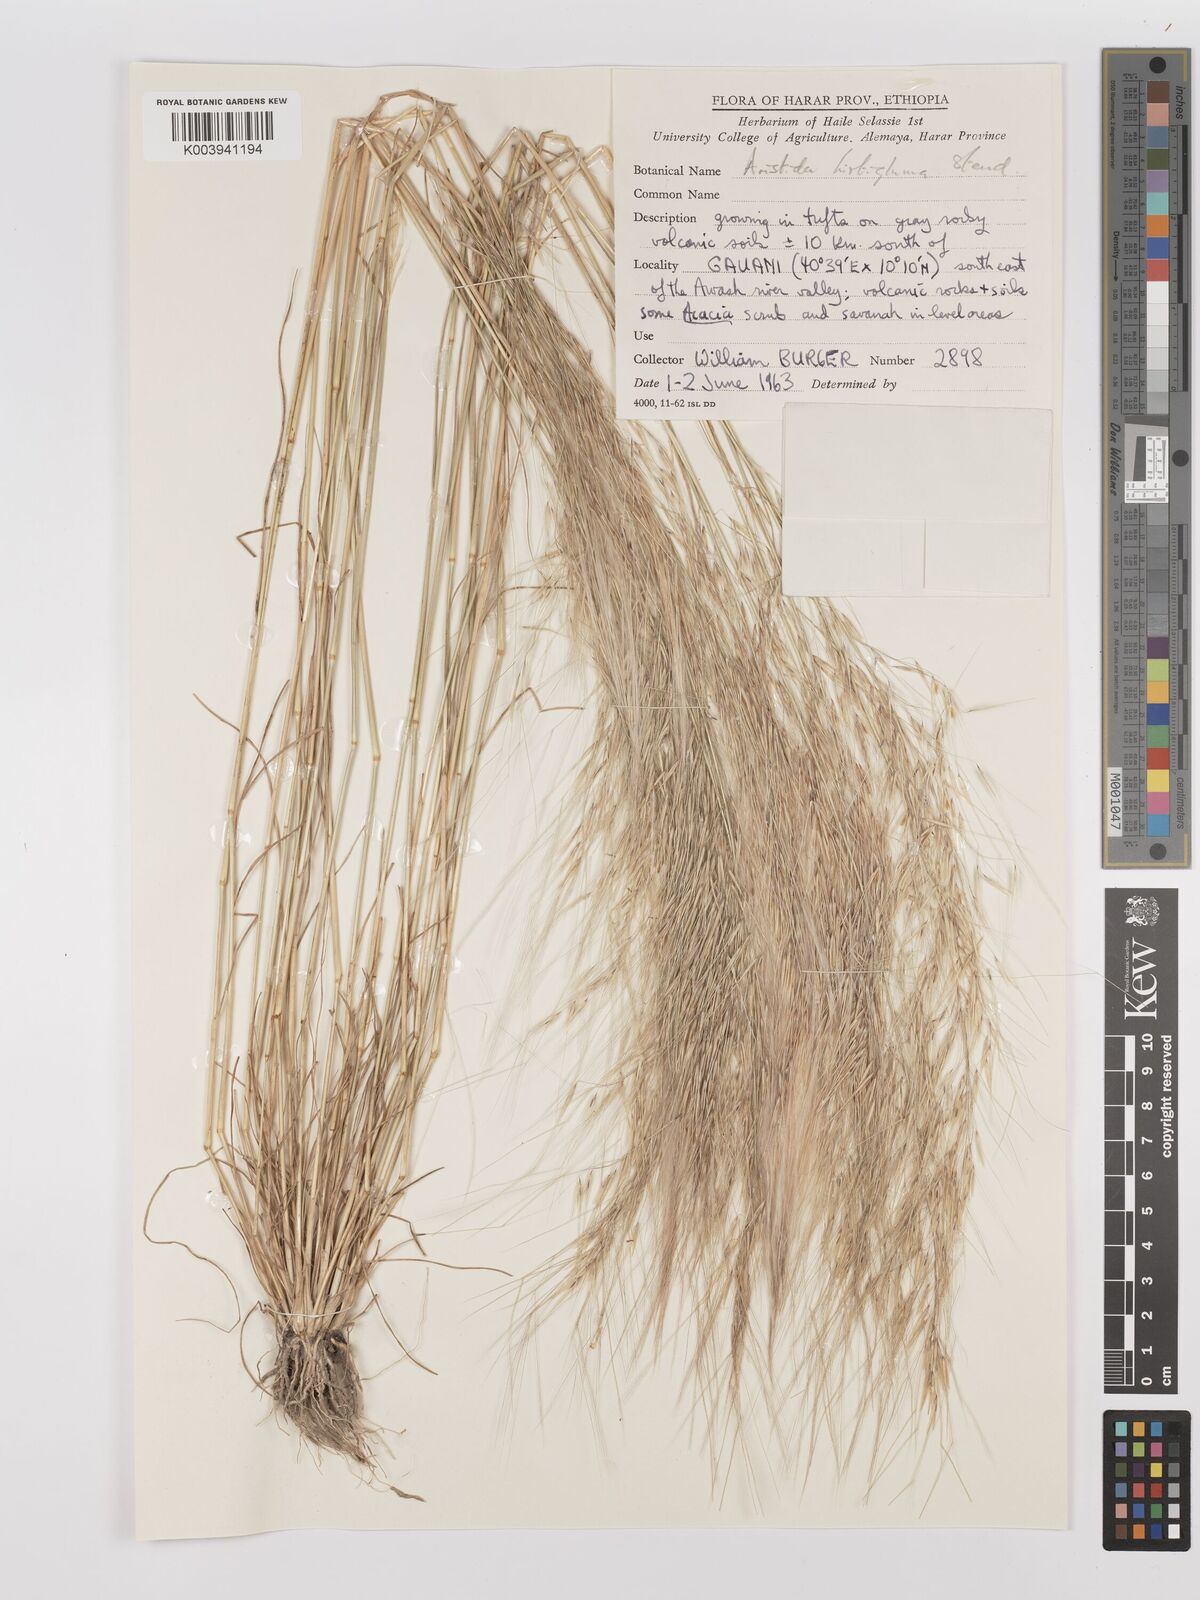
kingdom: Plantae
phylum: Tracheophyta
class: Liliopsida
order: Poales
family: Poaceae
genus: Stipagrostis
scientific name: Stipagrostis hirtigluma
